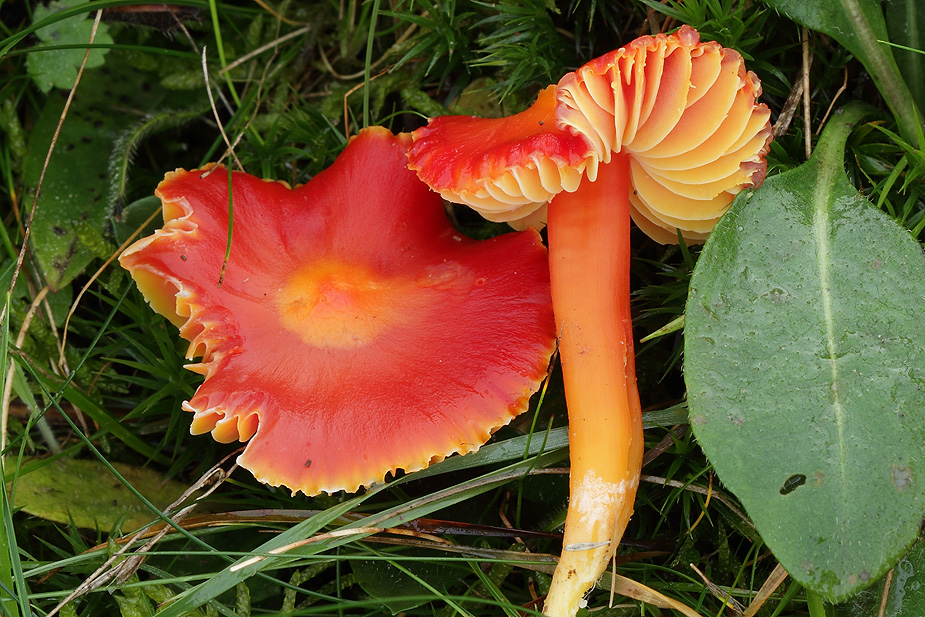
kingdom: Fungi
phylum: Basidiomycota
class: Agaricomycetes
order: Agaricales
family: Hygrophoraceae
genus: Hygrocybe
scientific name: Hygrocybe coccinea
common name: cinnober-vokshat
